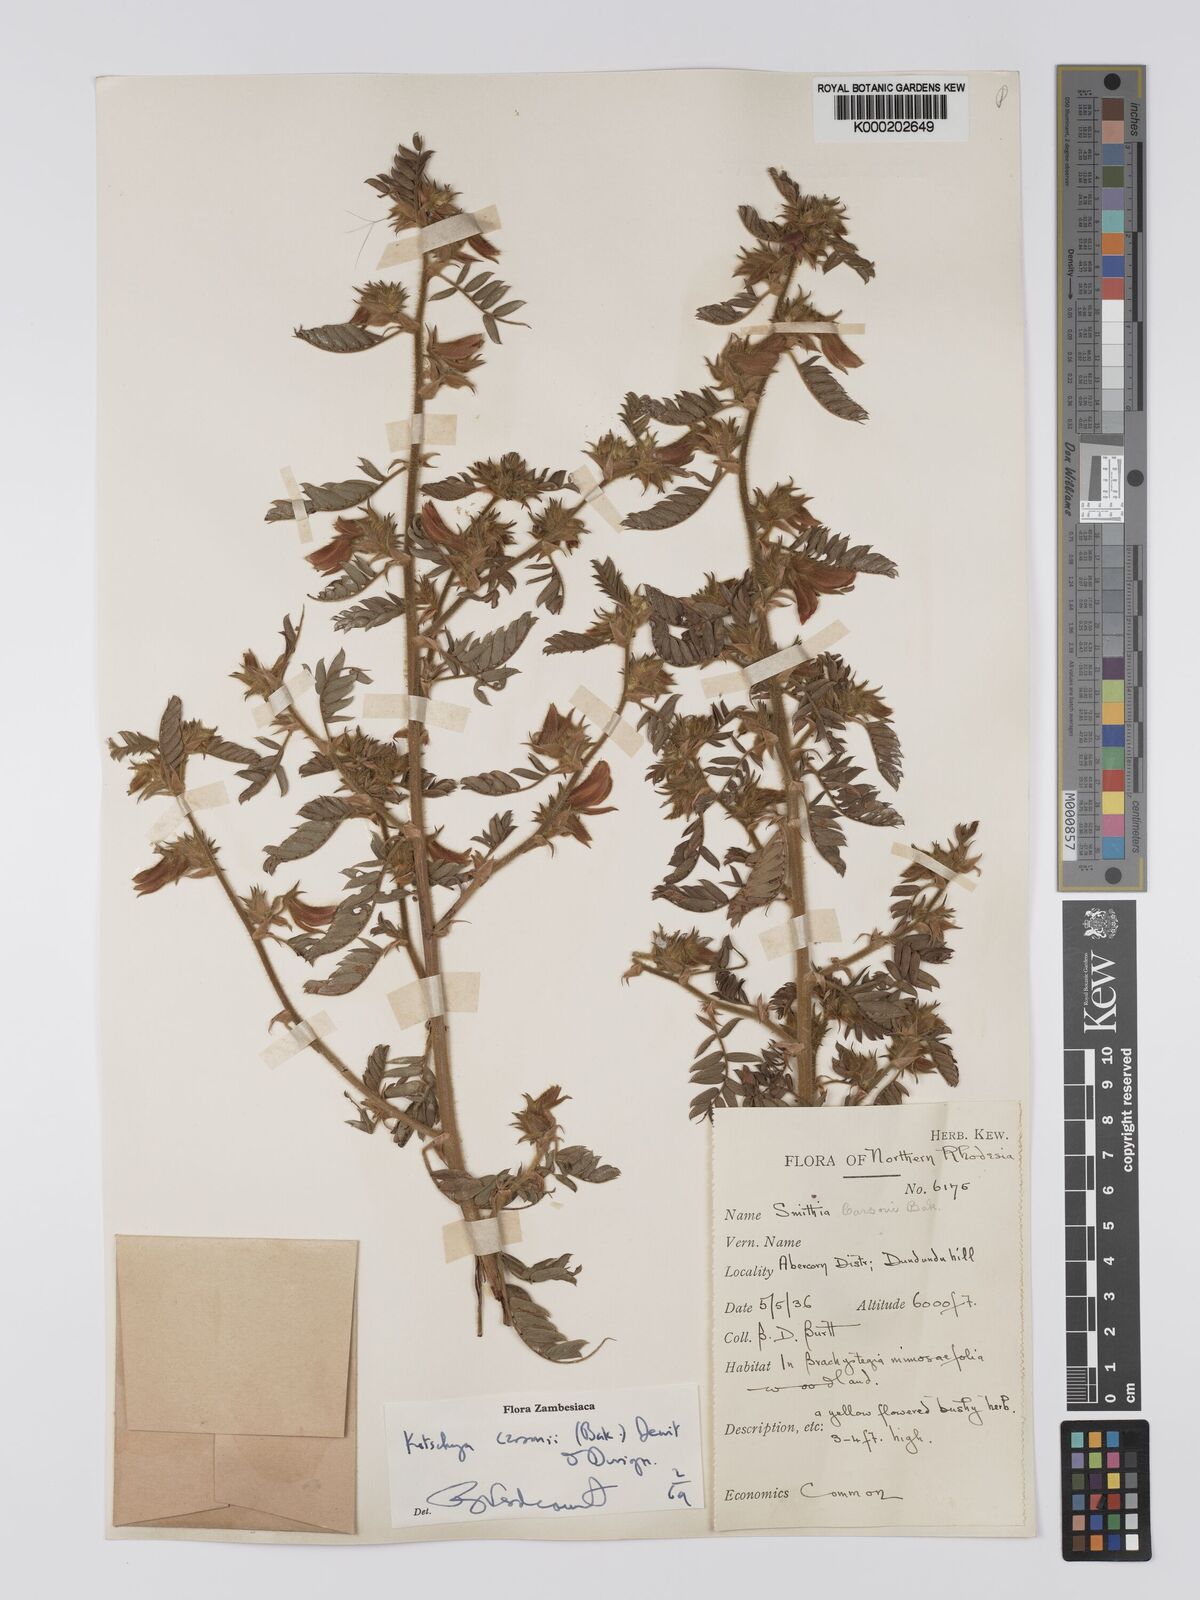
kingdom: Plantae
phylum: Tracheophyta
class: Magnoliopsida
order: Fabales
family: Fabaceae
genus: Kotschya
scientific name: Kotschya carsonii
